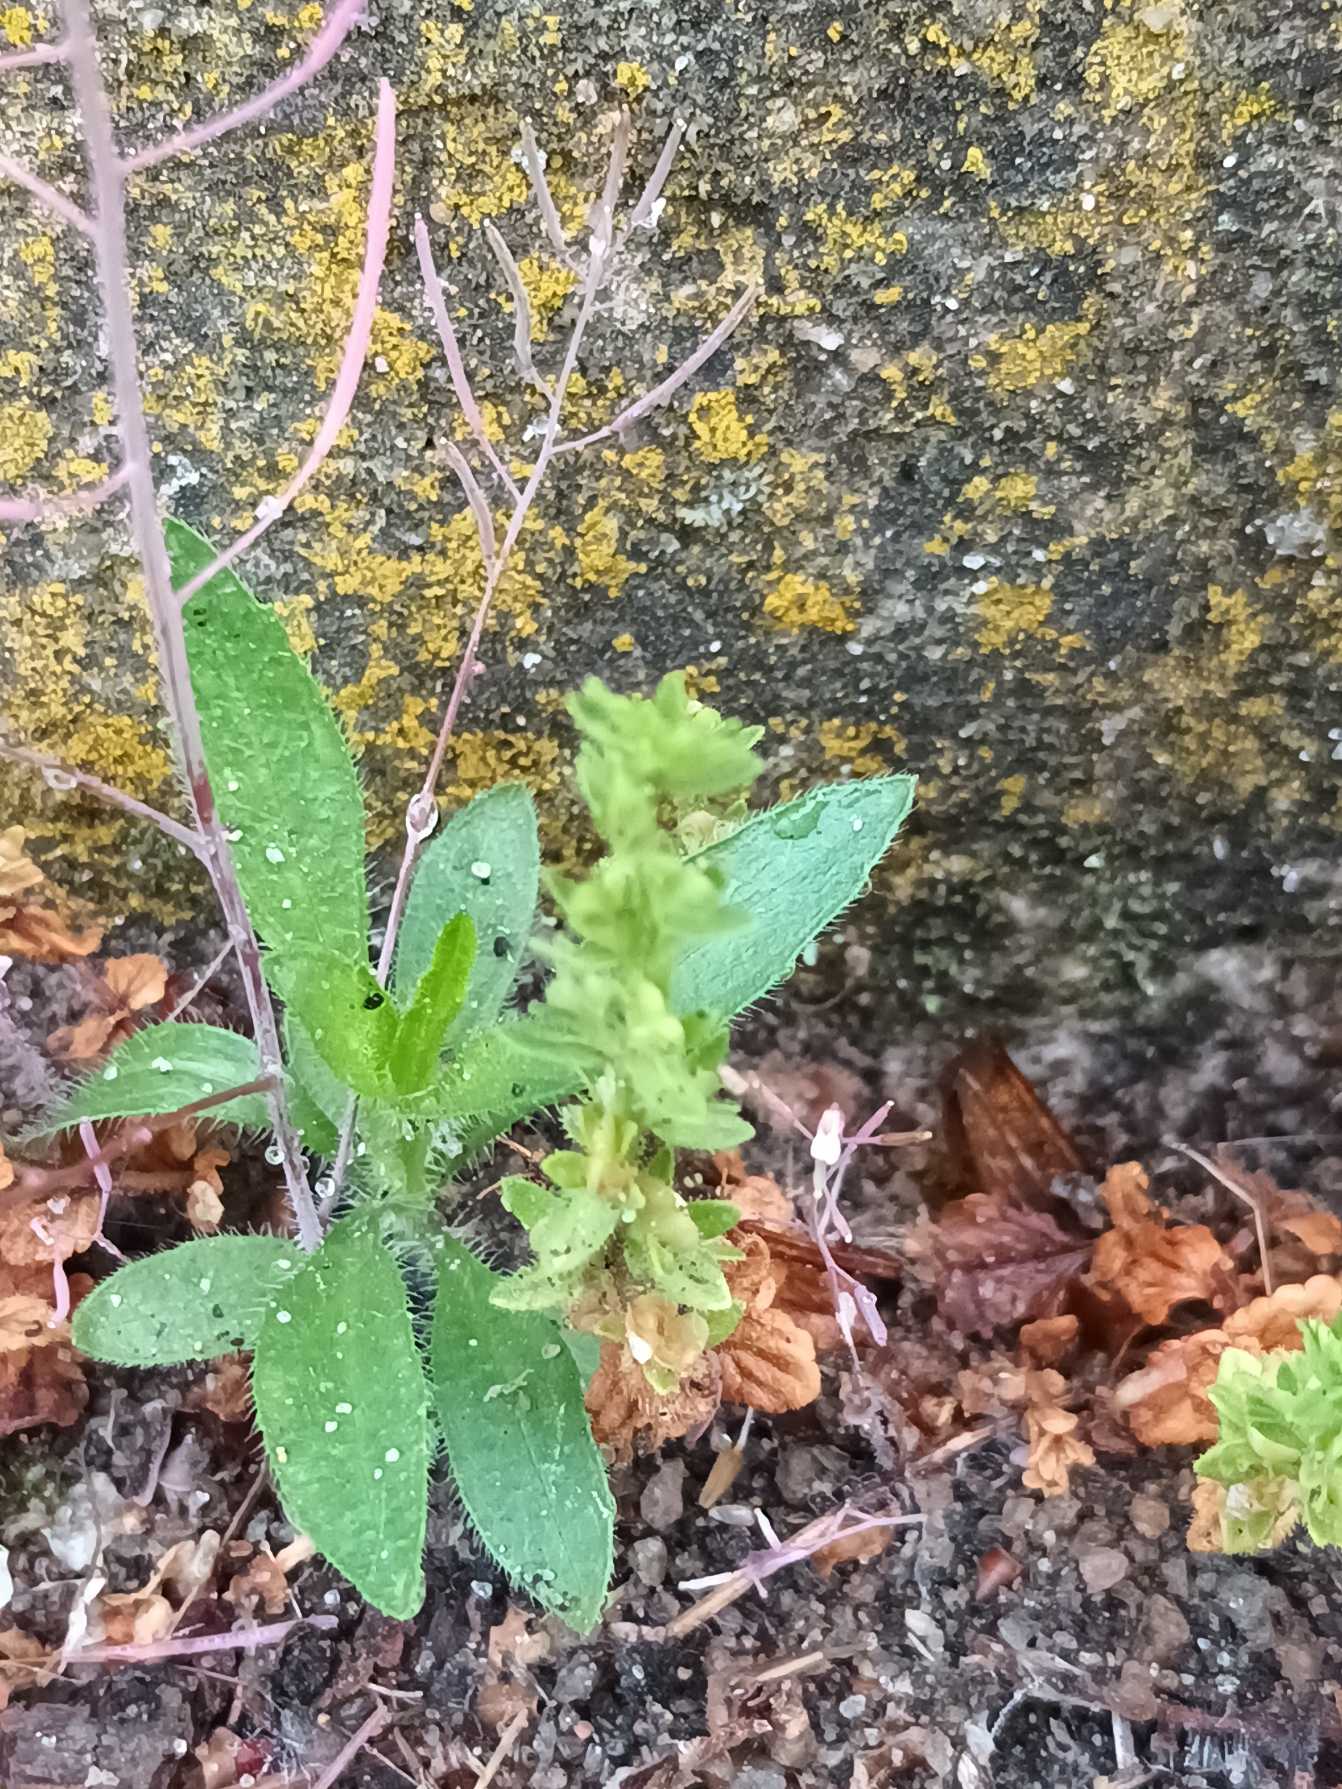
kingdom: Plantae
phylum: Tracheophyta
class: Magnoliopsida
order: Lamiales
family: Plantaginaceae
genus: Veronica
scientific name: Veronica arvensis
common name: Mark-ærenpris
